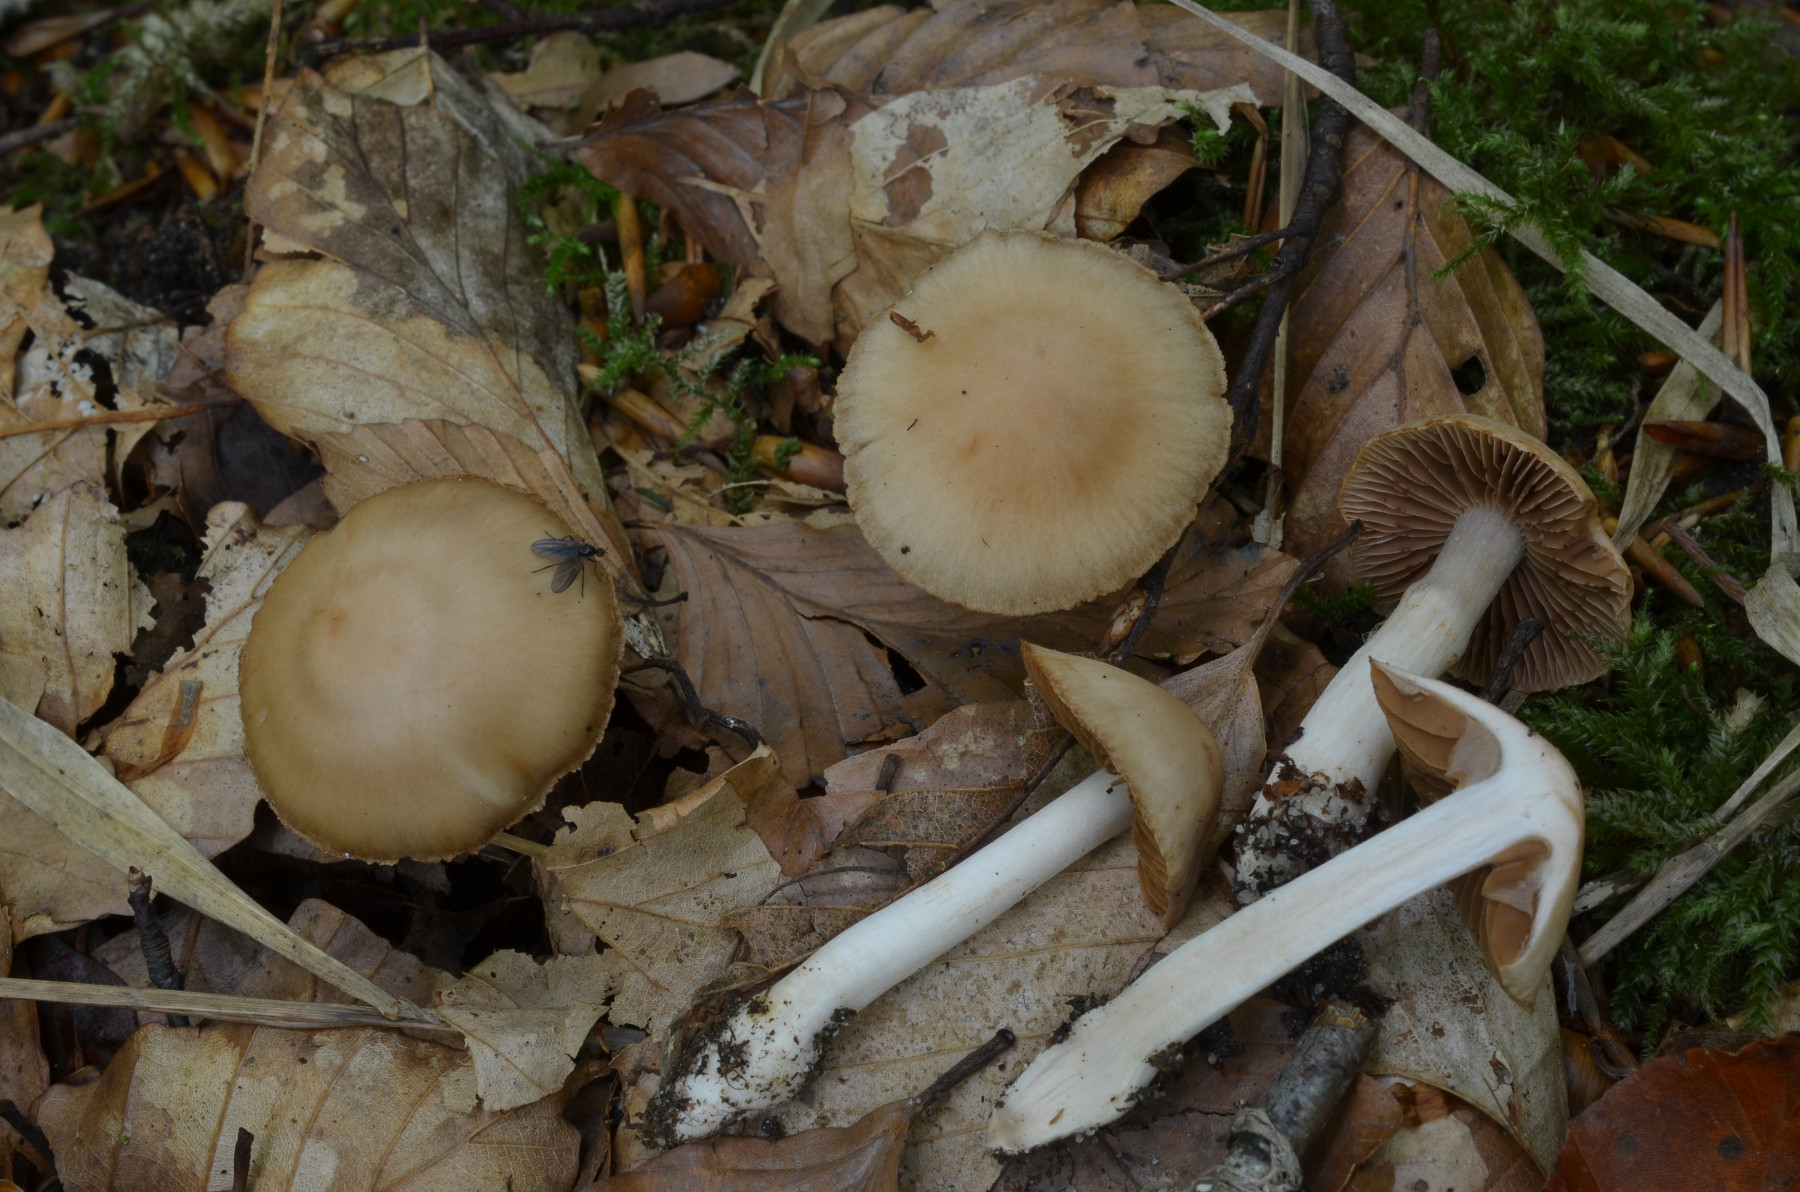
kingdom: Fungi
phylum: Basidiomycota
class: Agaricomycetes
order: Agaricales
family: Cortinariaceae
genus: Cortinarius
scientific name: Cortinarius iners
